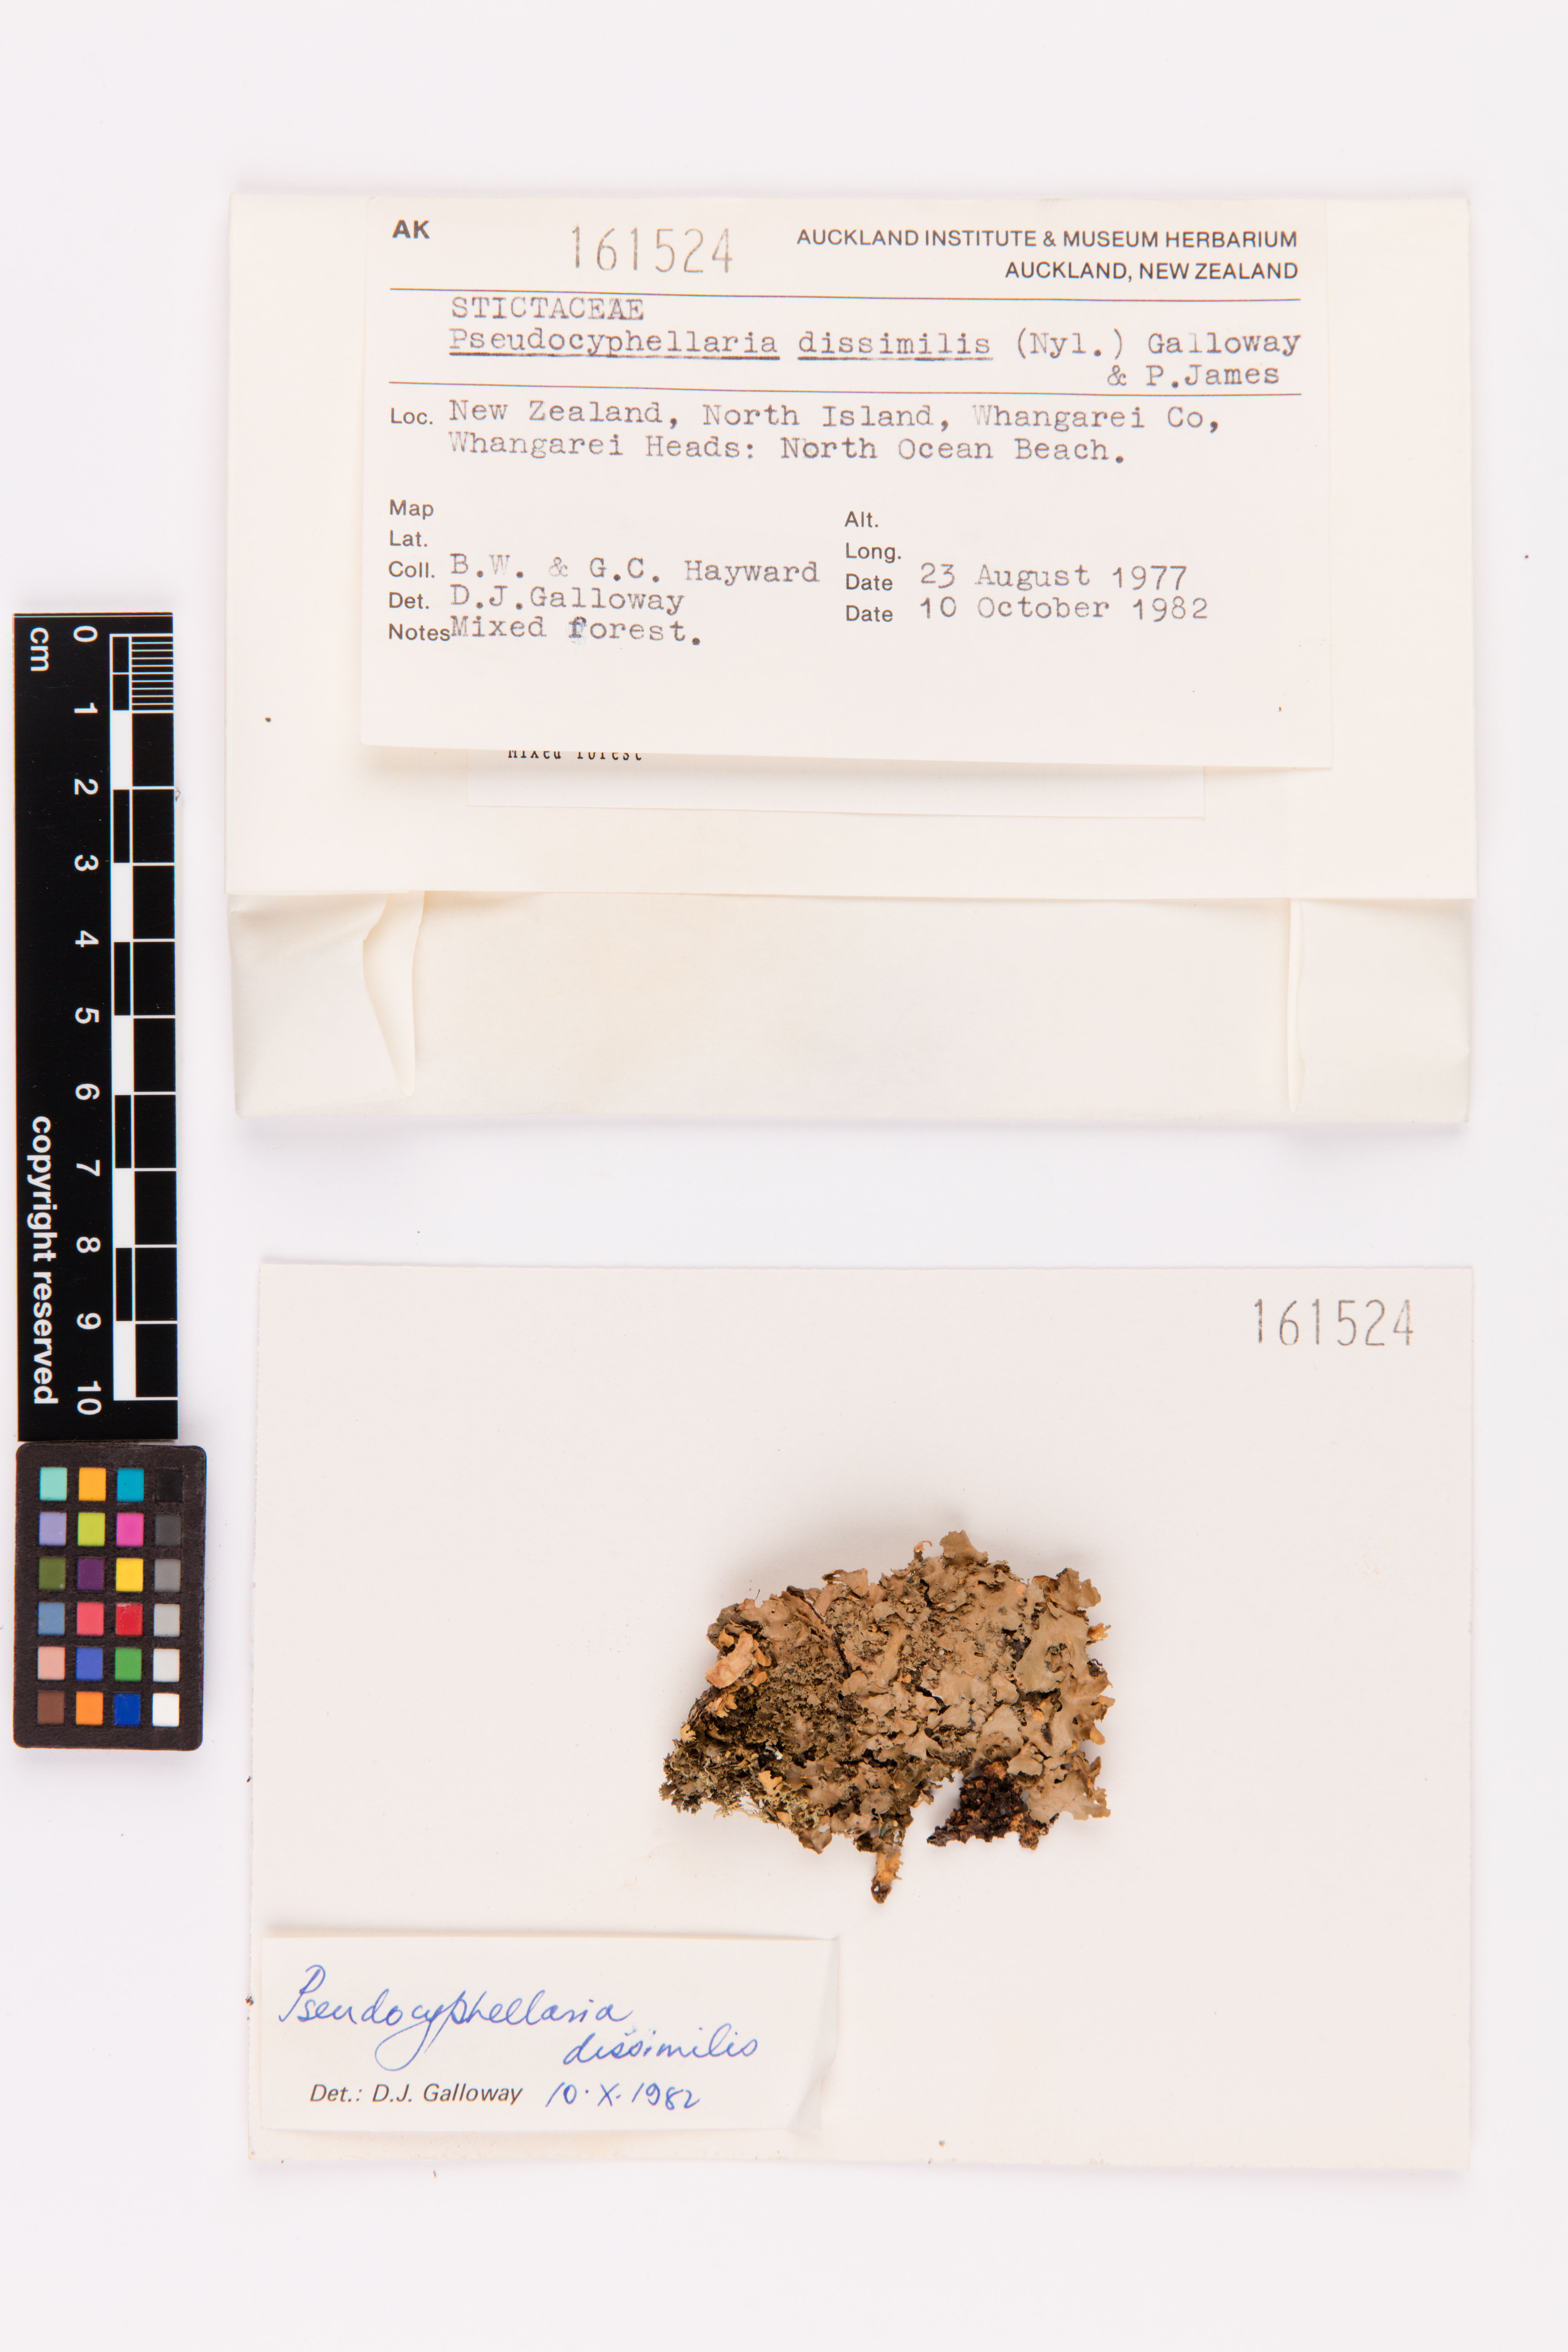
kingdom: Fungi
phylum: Ascomycota
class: Lecanoromycetes
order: Peltigerales
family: Lobariaceae
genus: Pseudocyphellaria
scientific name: Pseudocyphellaria dissimilis
